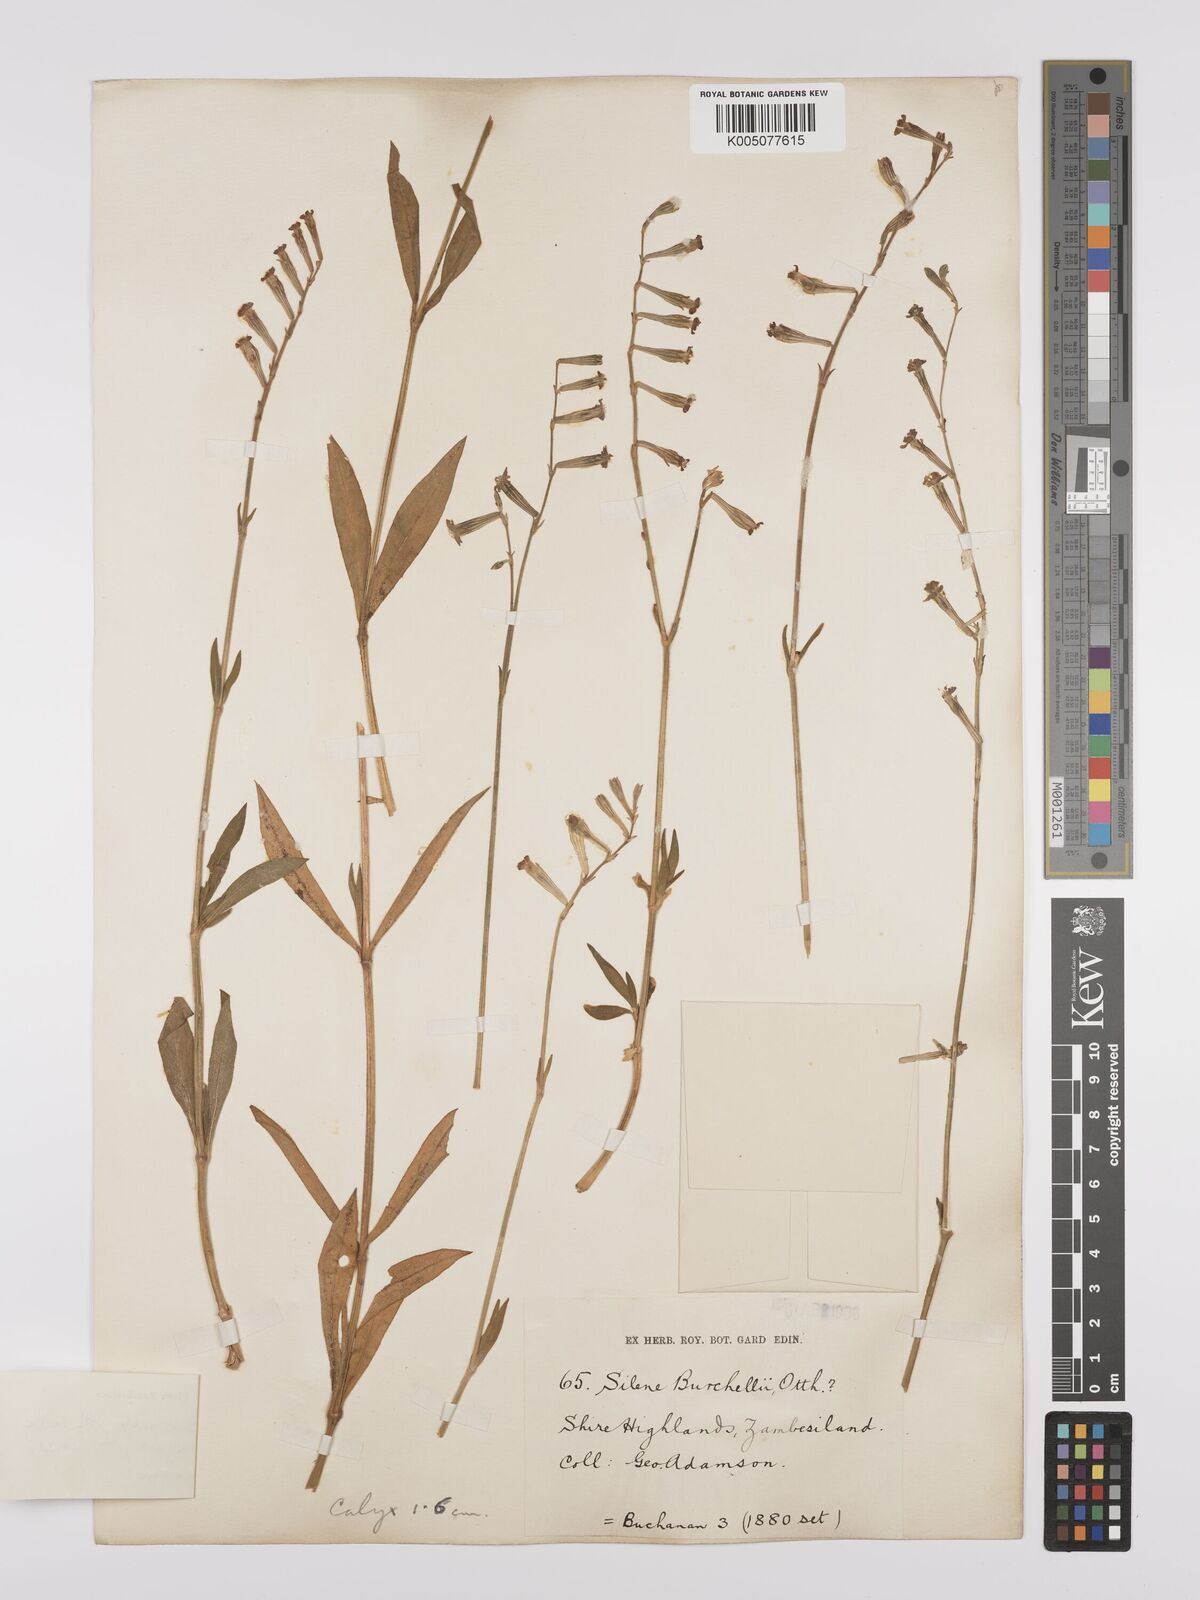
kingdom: Plantae
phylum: Tracheophyta
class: Magnoliopsida
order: Caryophyllales
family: Caryophyllaceae
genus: Silene
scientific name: Silene burchellii
